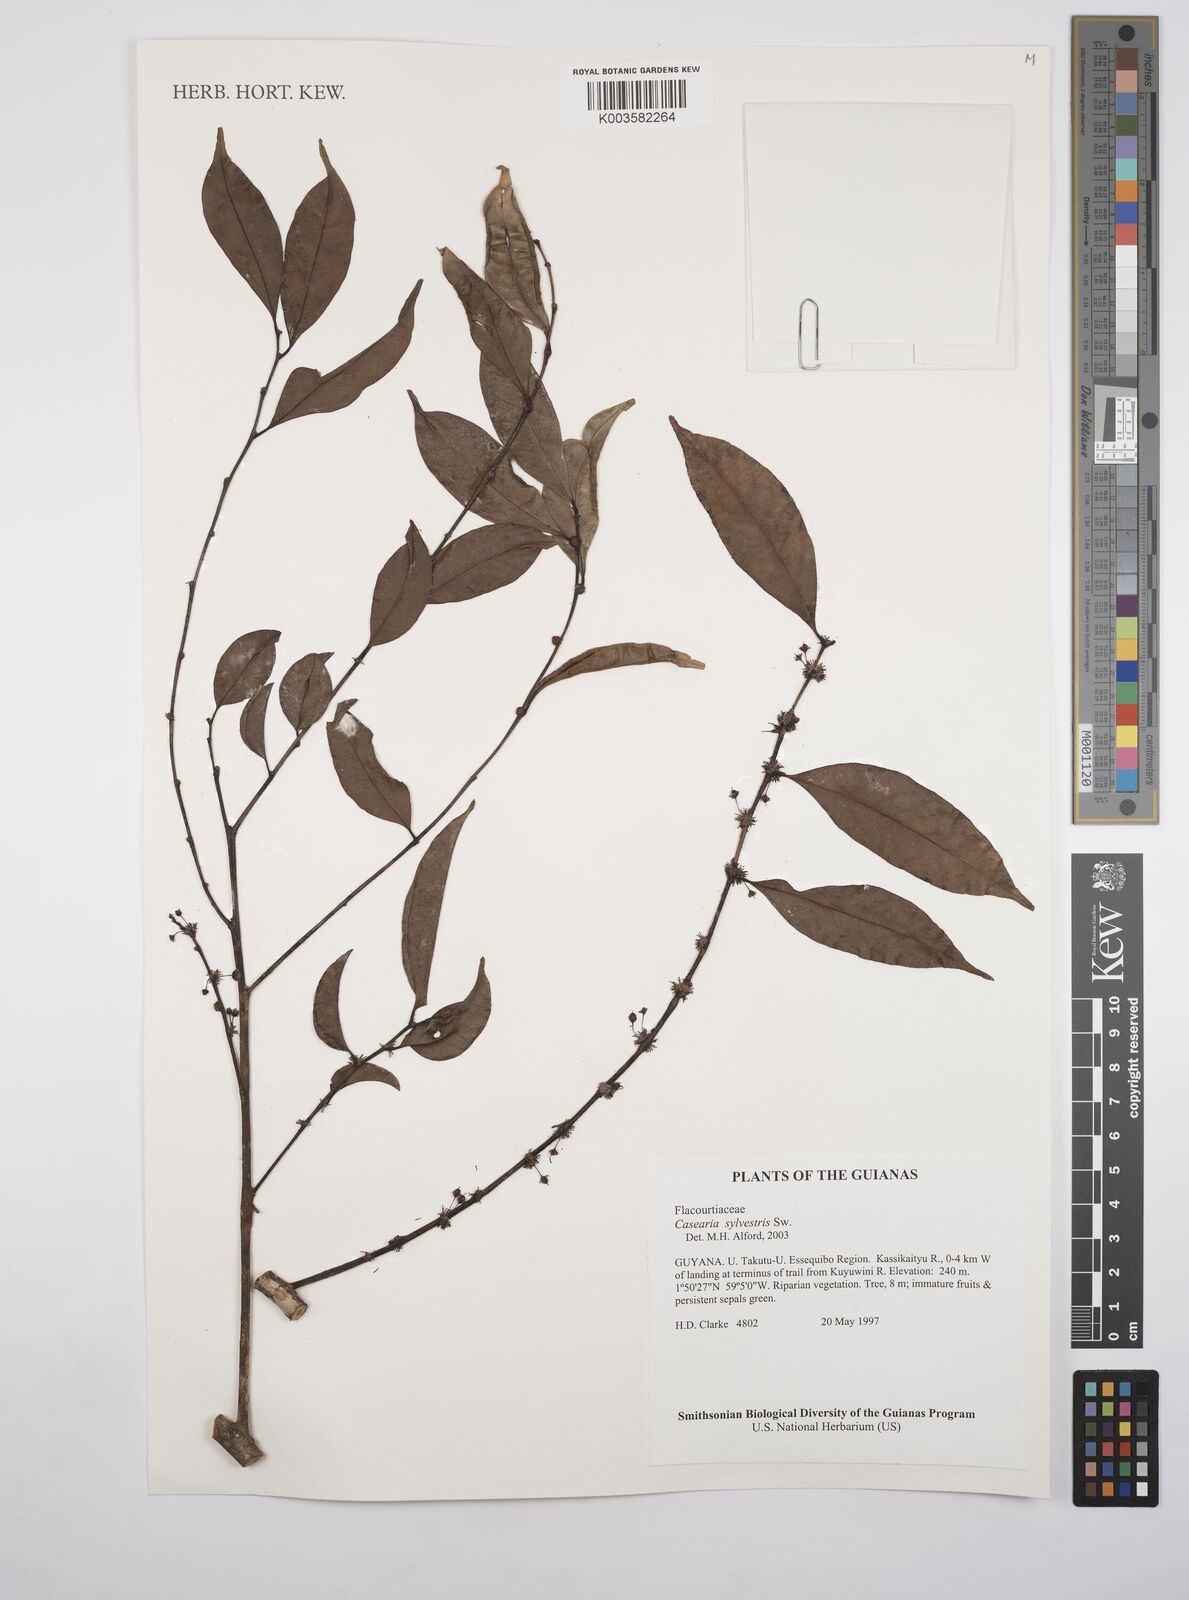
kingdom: Plantae
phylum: Tracheophyta
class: Magnoliopsida
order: Malpighiales
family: Salicaceae
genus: Casearia
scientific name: Casearia sylvestris
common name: Wild sage
